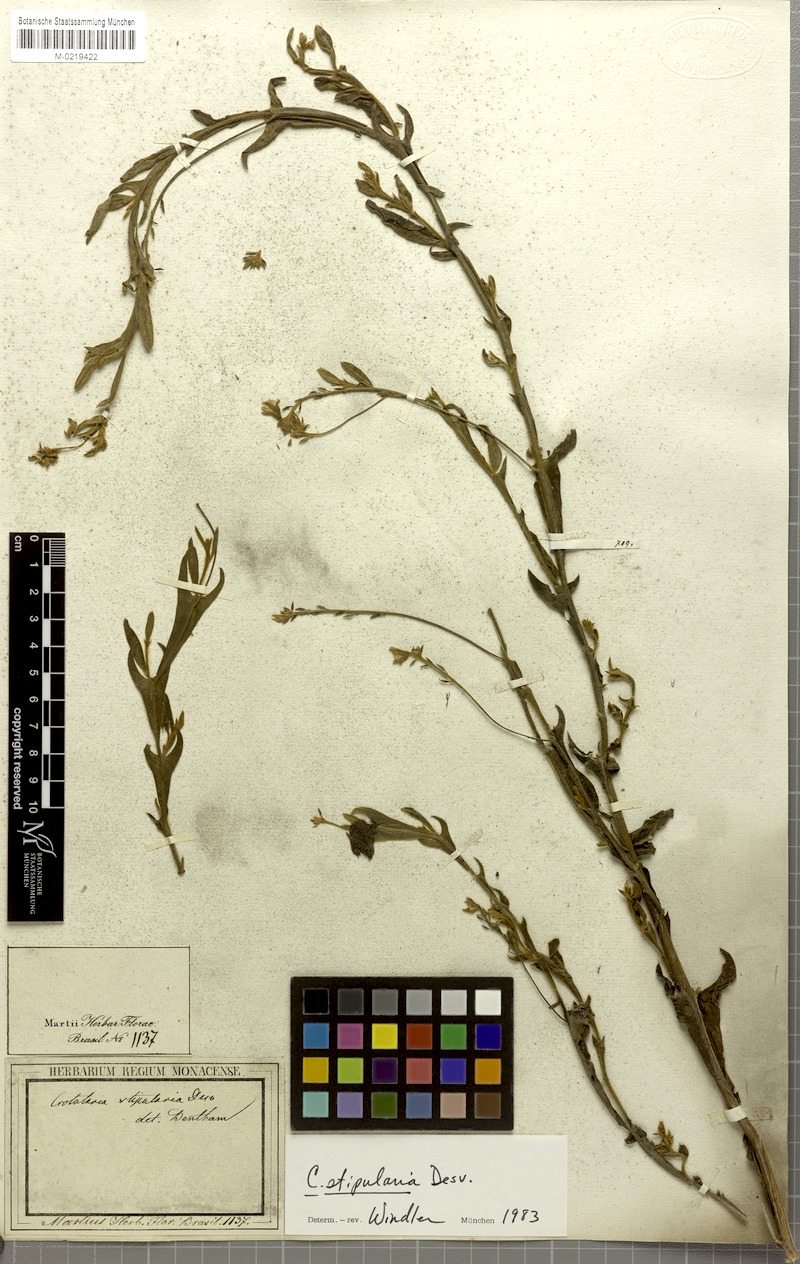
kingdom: Plantae
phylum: Tracheophyta
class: Magnoliopsida
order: Fabales
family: Fabaceae
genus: Crotalaria
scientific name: Crotalaria stipularia
